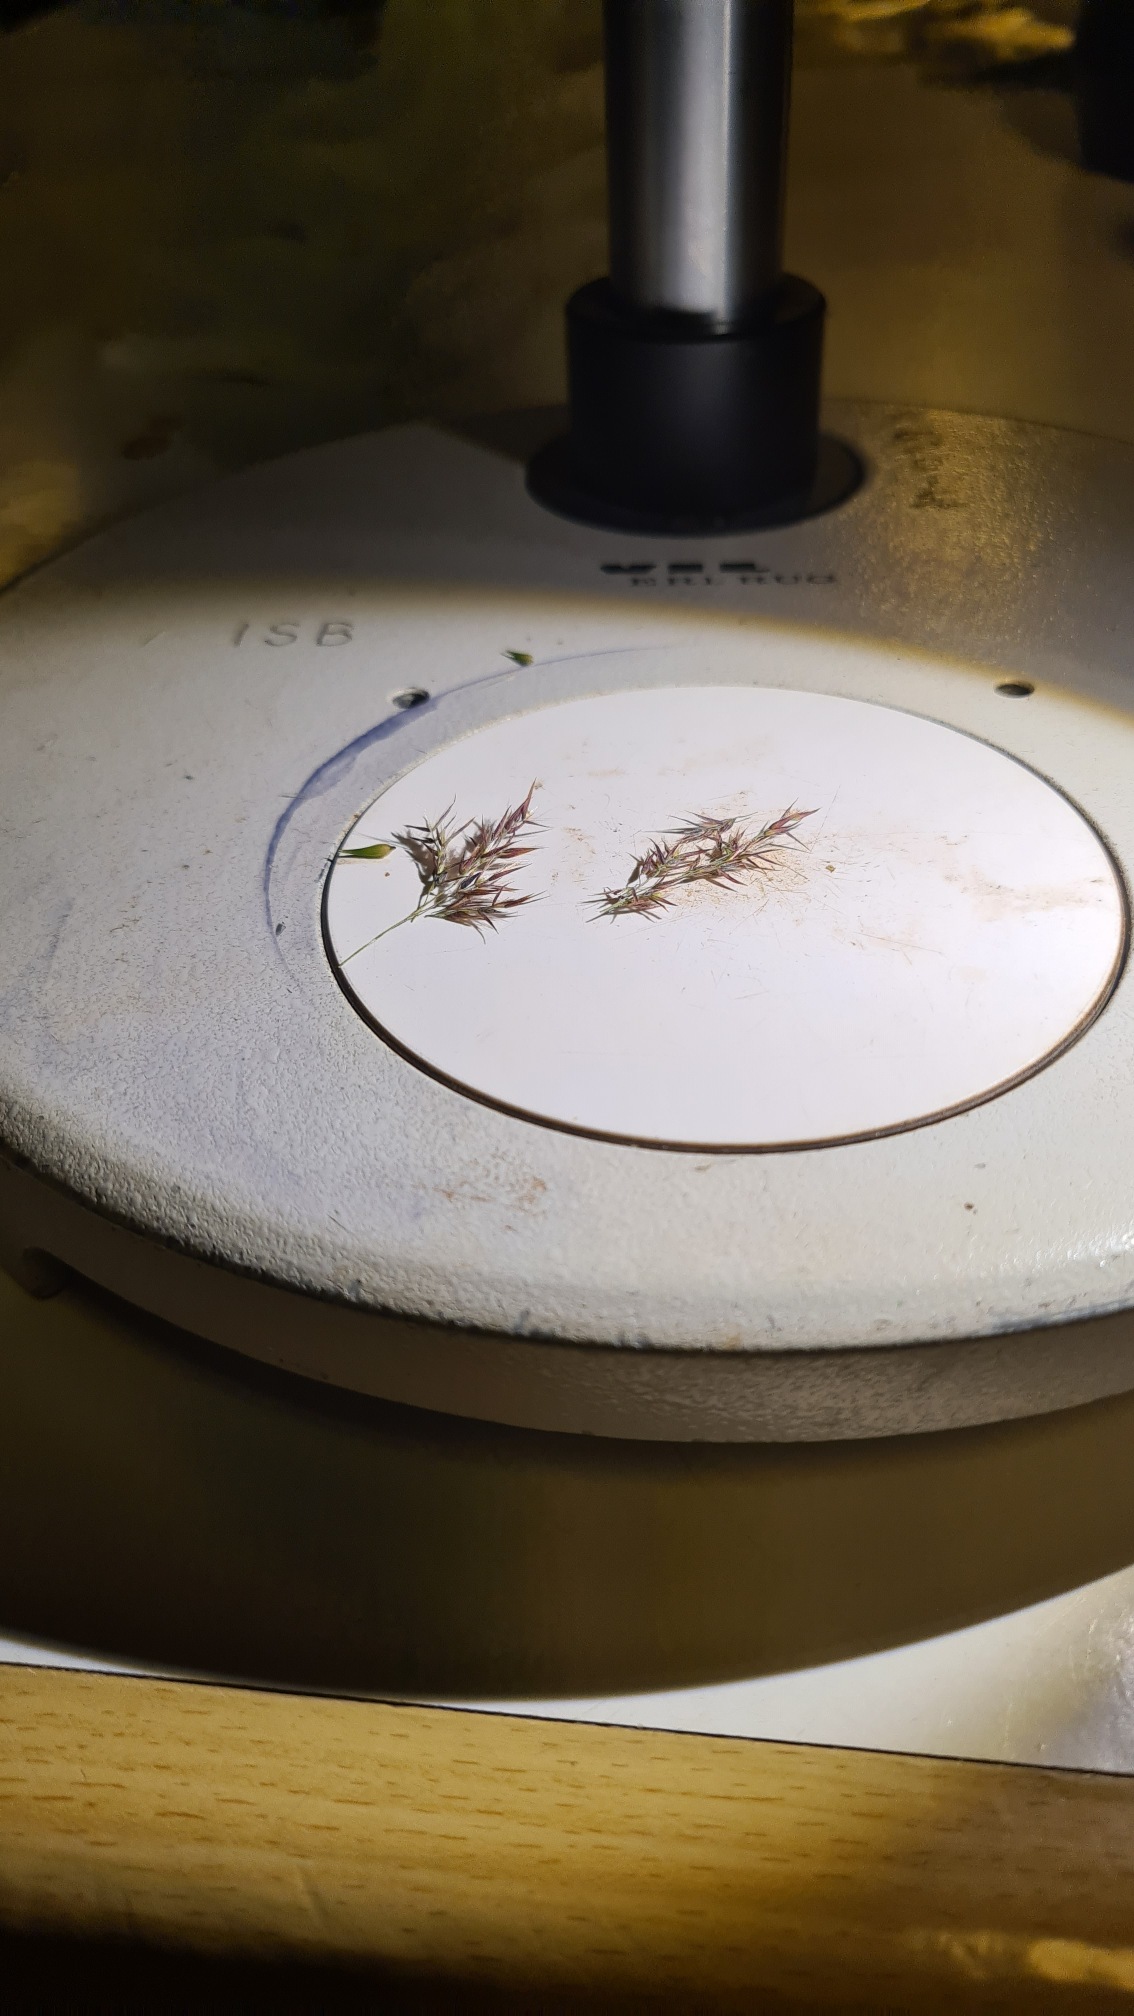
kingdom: Plantae
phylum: Tracheophyta
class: Liliopsida
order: Poales
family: Poaceae
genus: Calamagrostis
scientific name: Calamagrostis canescens
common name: Eng-rørhvene
